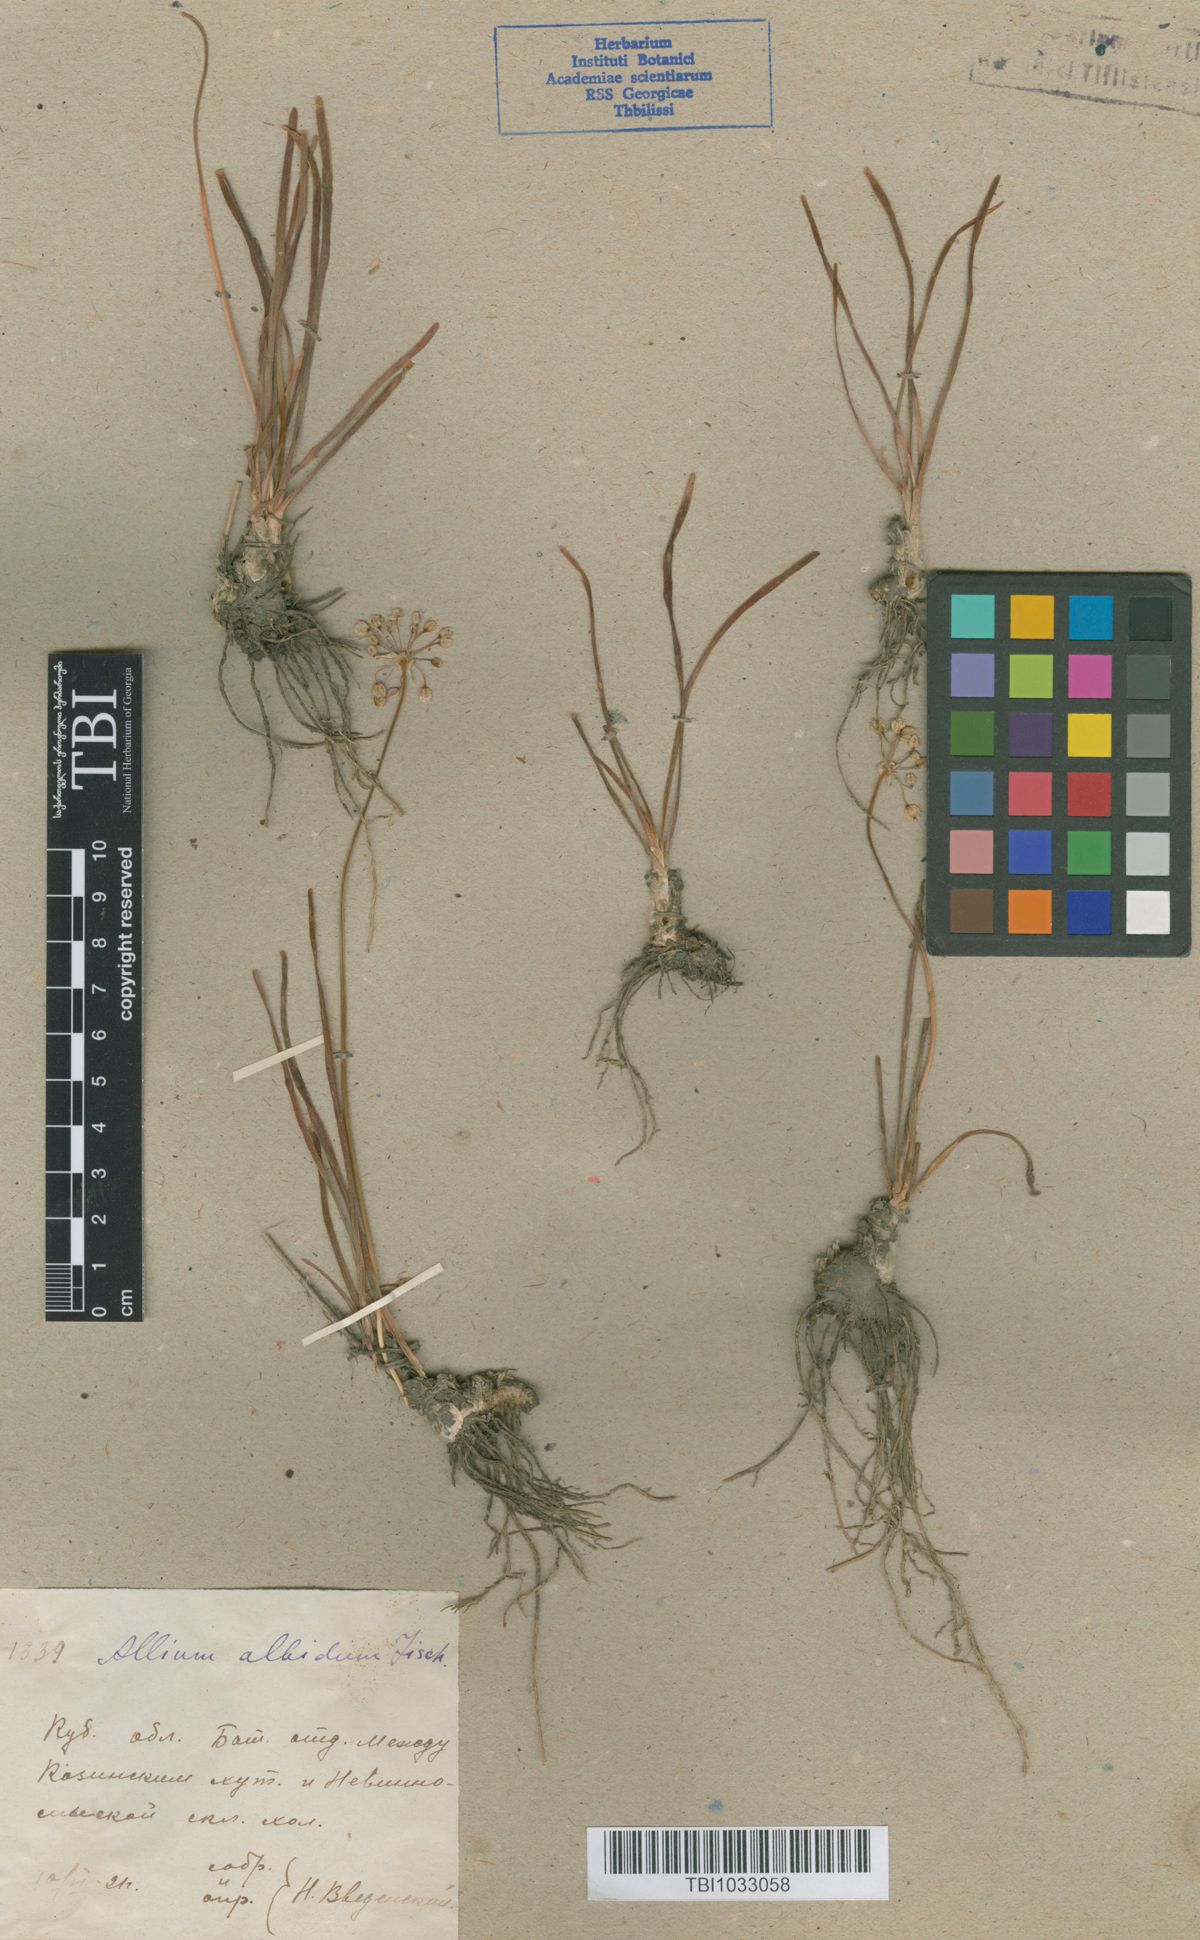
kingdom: Plantae
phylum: Tracheophyta
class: Liliopsida
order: Asparagales
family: Amaryllidaceae
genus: Allium
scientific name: Allium denudatum
